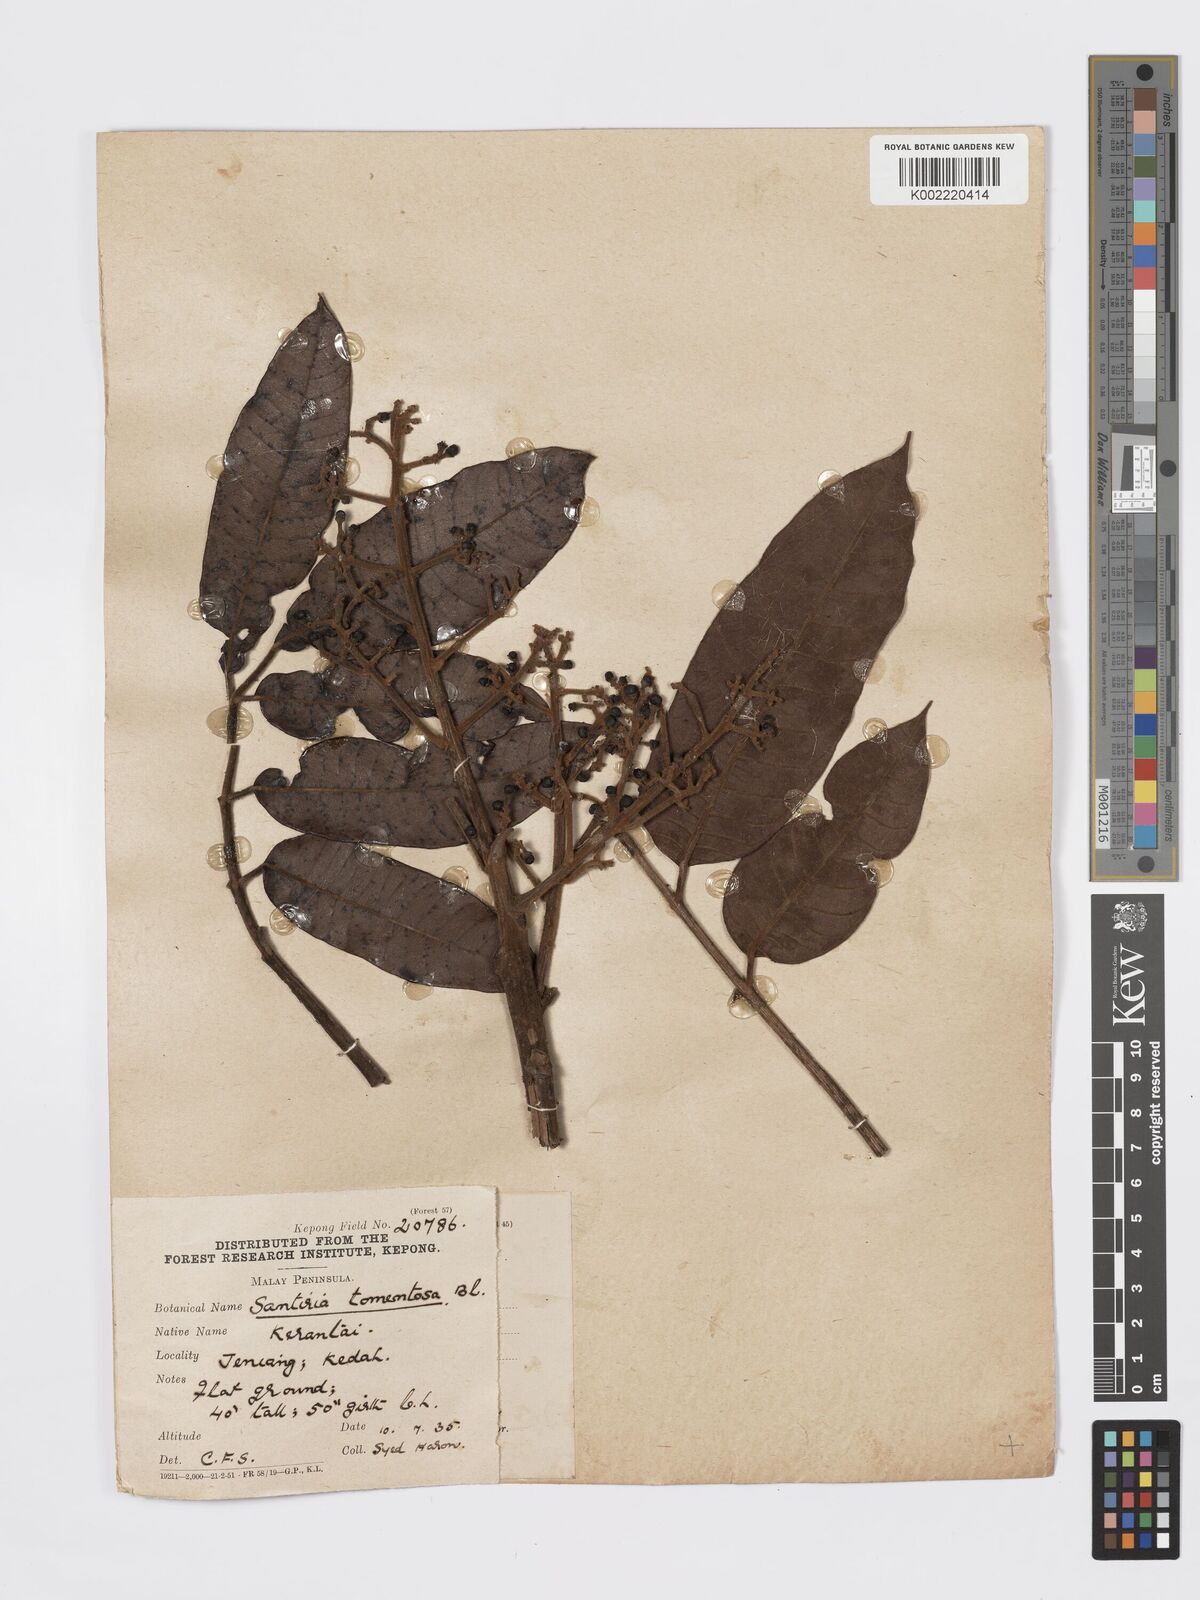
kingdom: Plantae
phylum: Tracheophyta
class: Magnoliopsida
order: Sapindales
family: Burseraceae
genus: Santiria
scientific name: Santiria tomentosa
